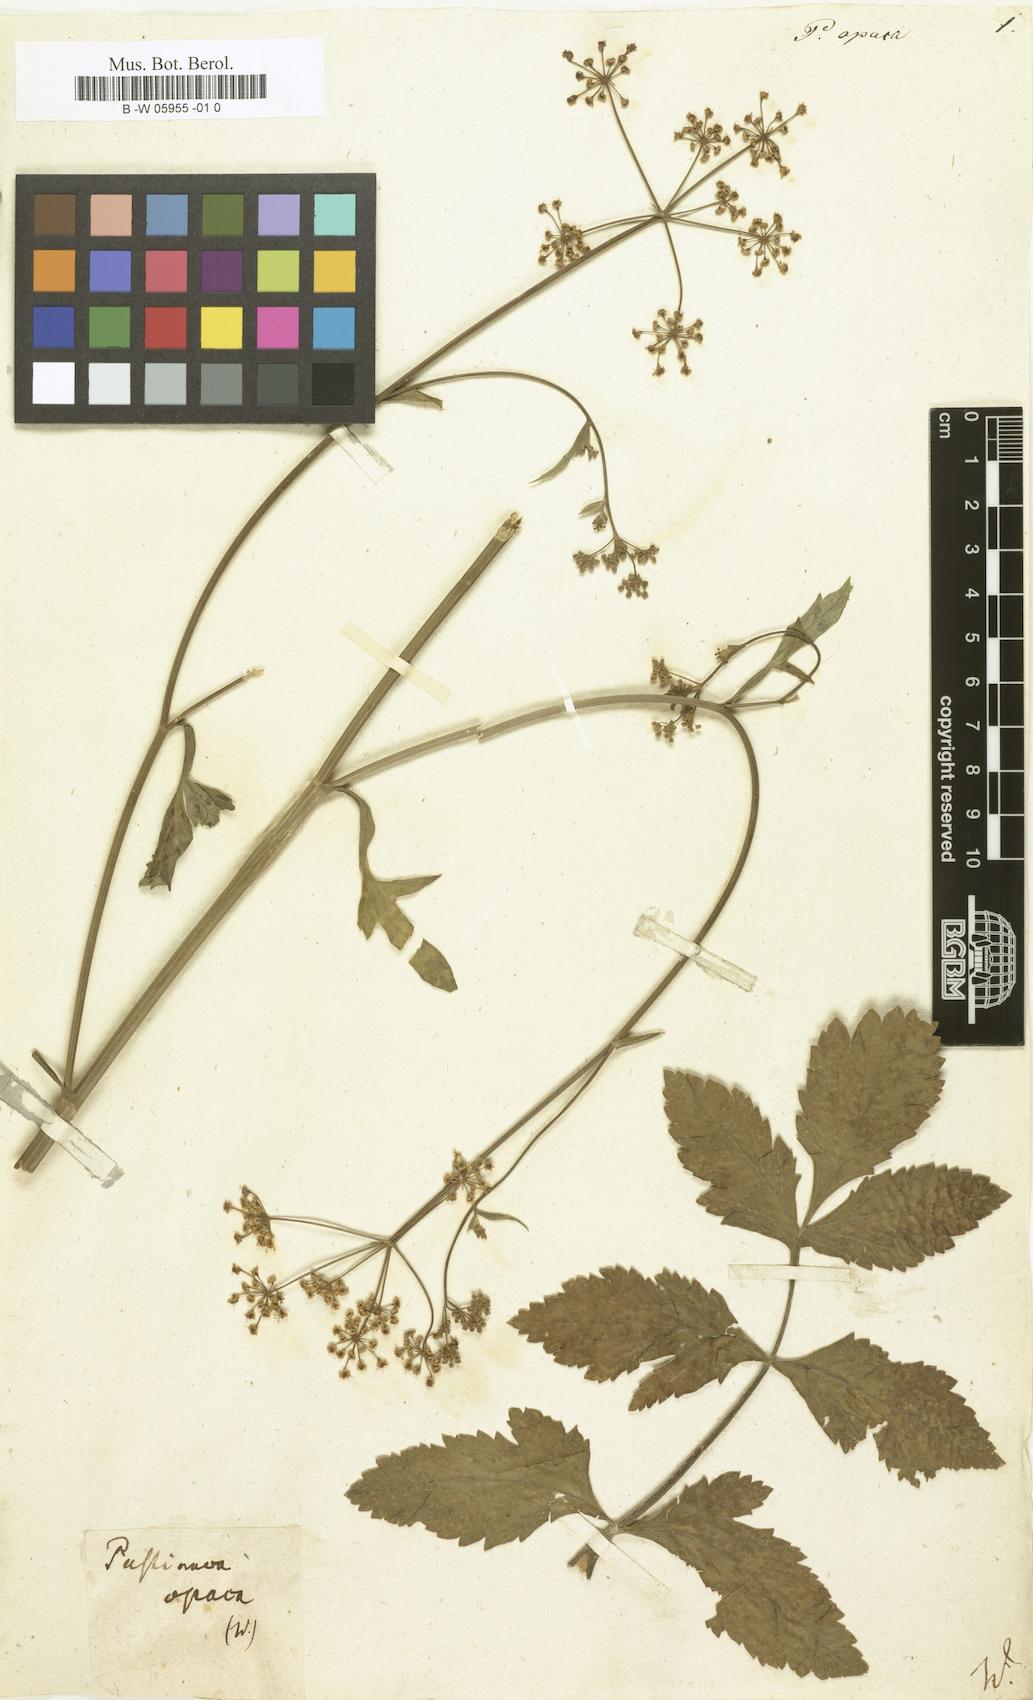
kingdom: Plantae
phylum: Tracheophyta
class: Magnoliopsida
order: Apiales
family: Apiaceae
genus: Pastinaca
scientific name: Pastinaca sativa
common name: Wild parsnip
